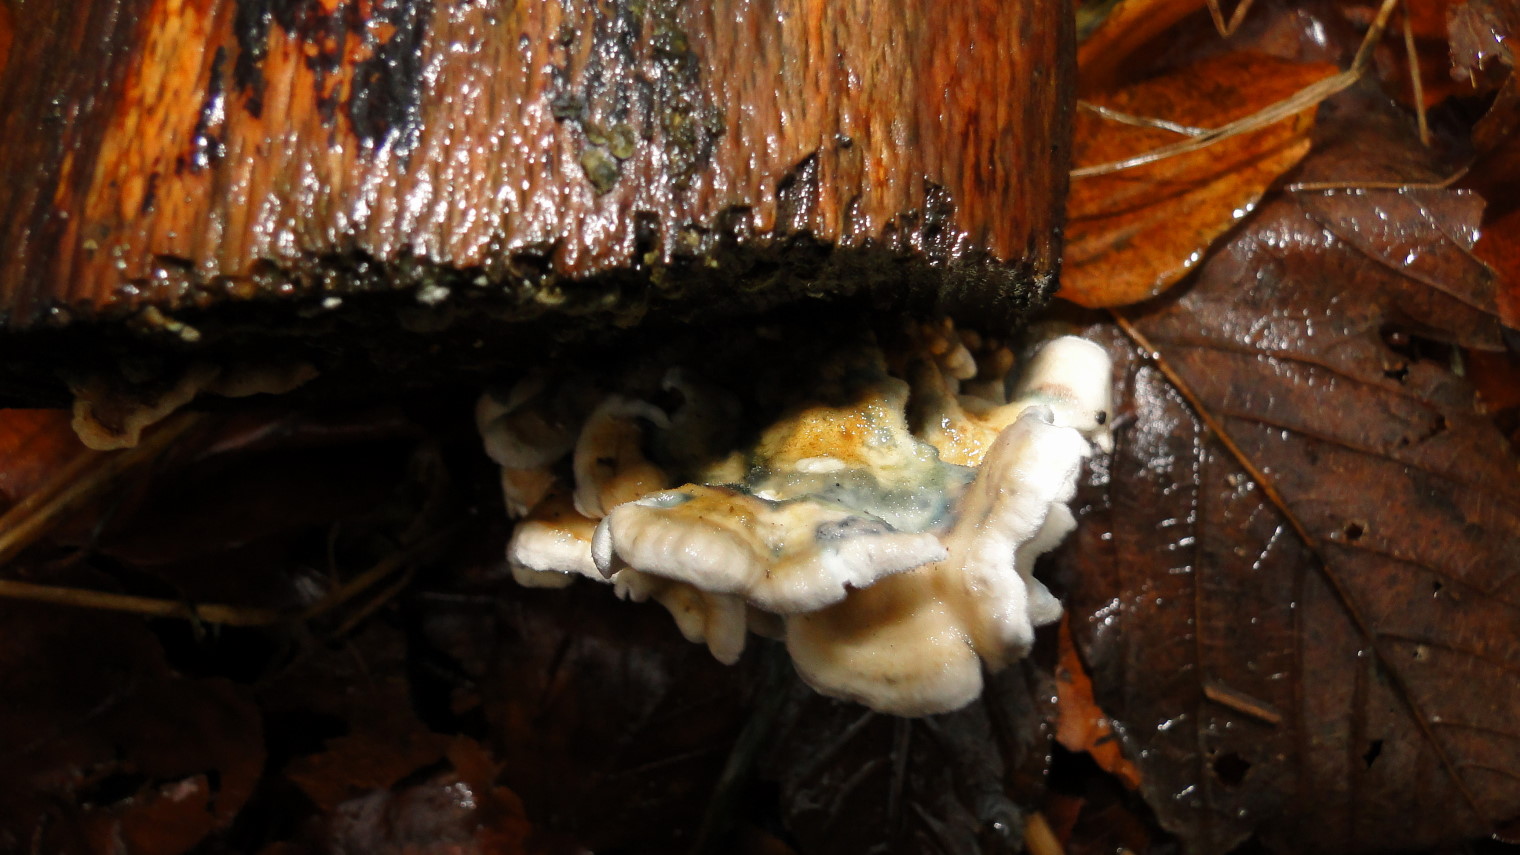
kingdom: Fungi
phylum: Basidiomycota
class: Agaricomycetes
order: Amylocorticiales
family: Amylocorticiaceae
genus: Plicaturopsis
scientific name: Plicaturopsis crispa
